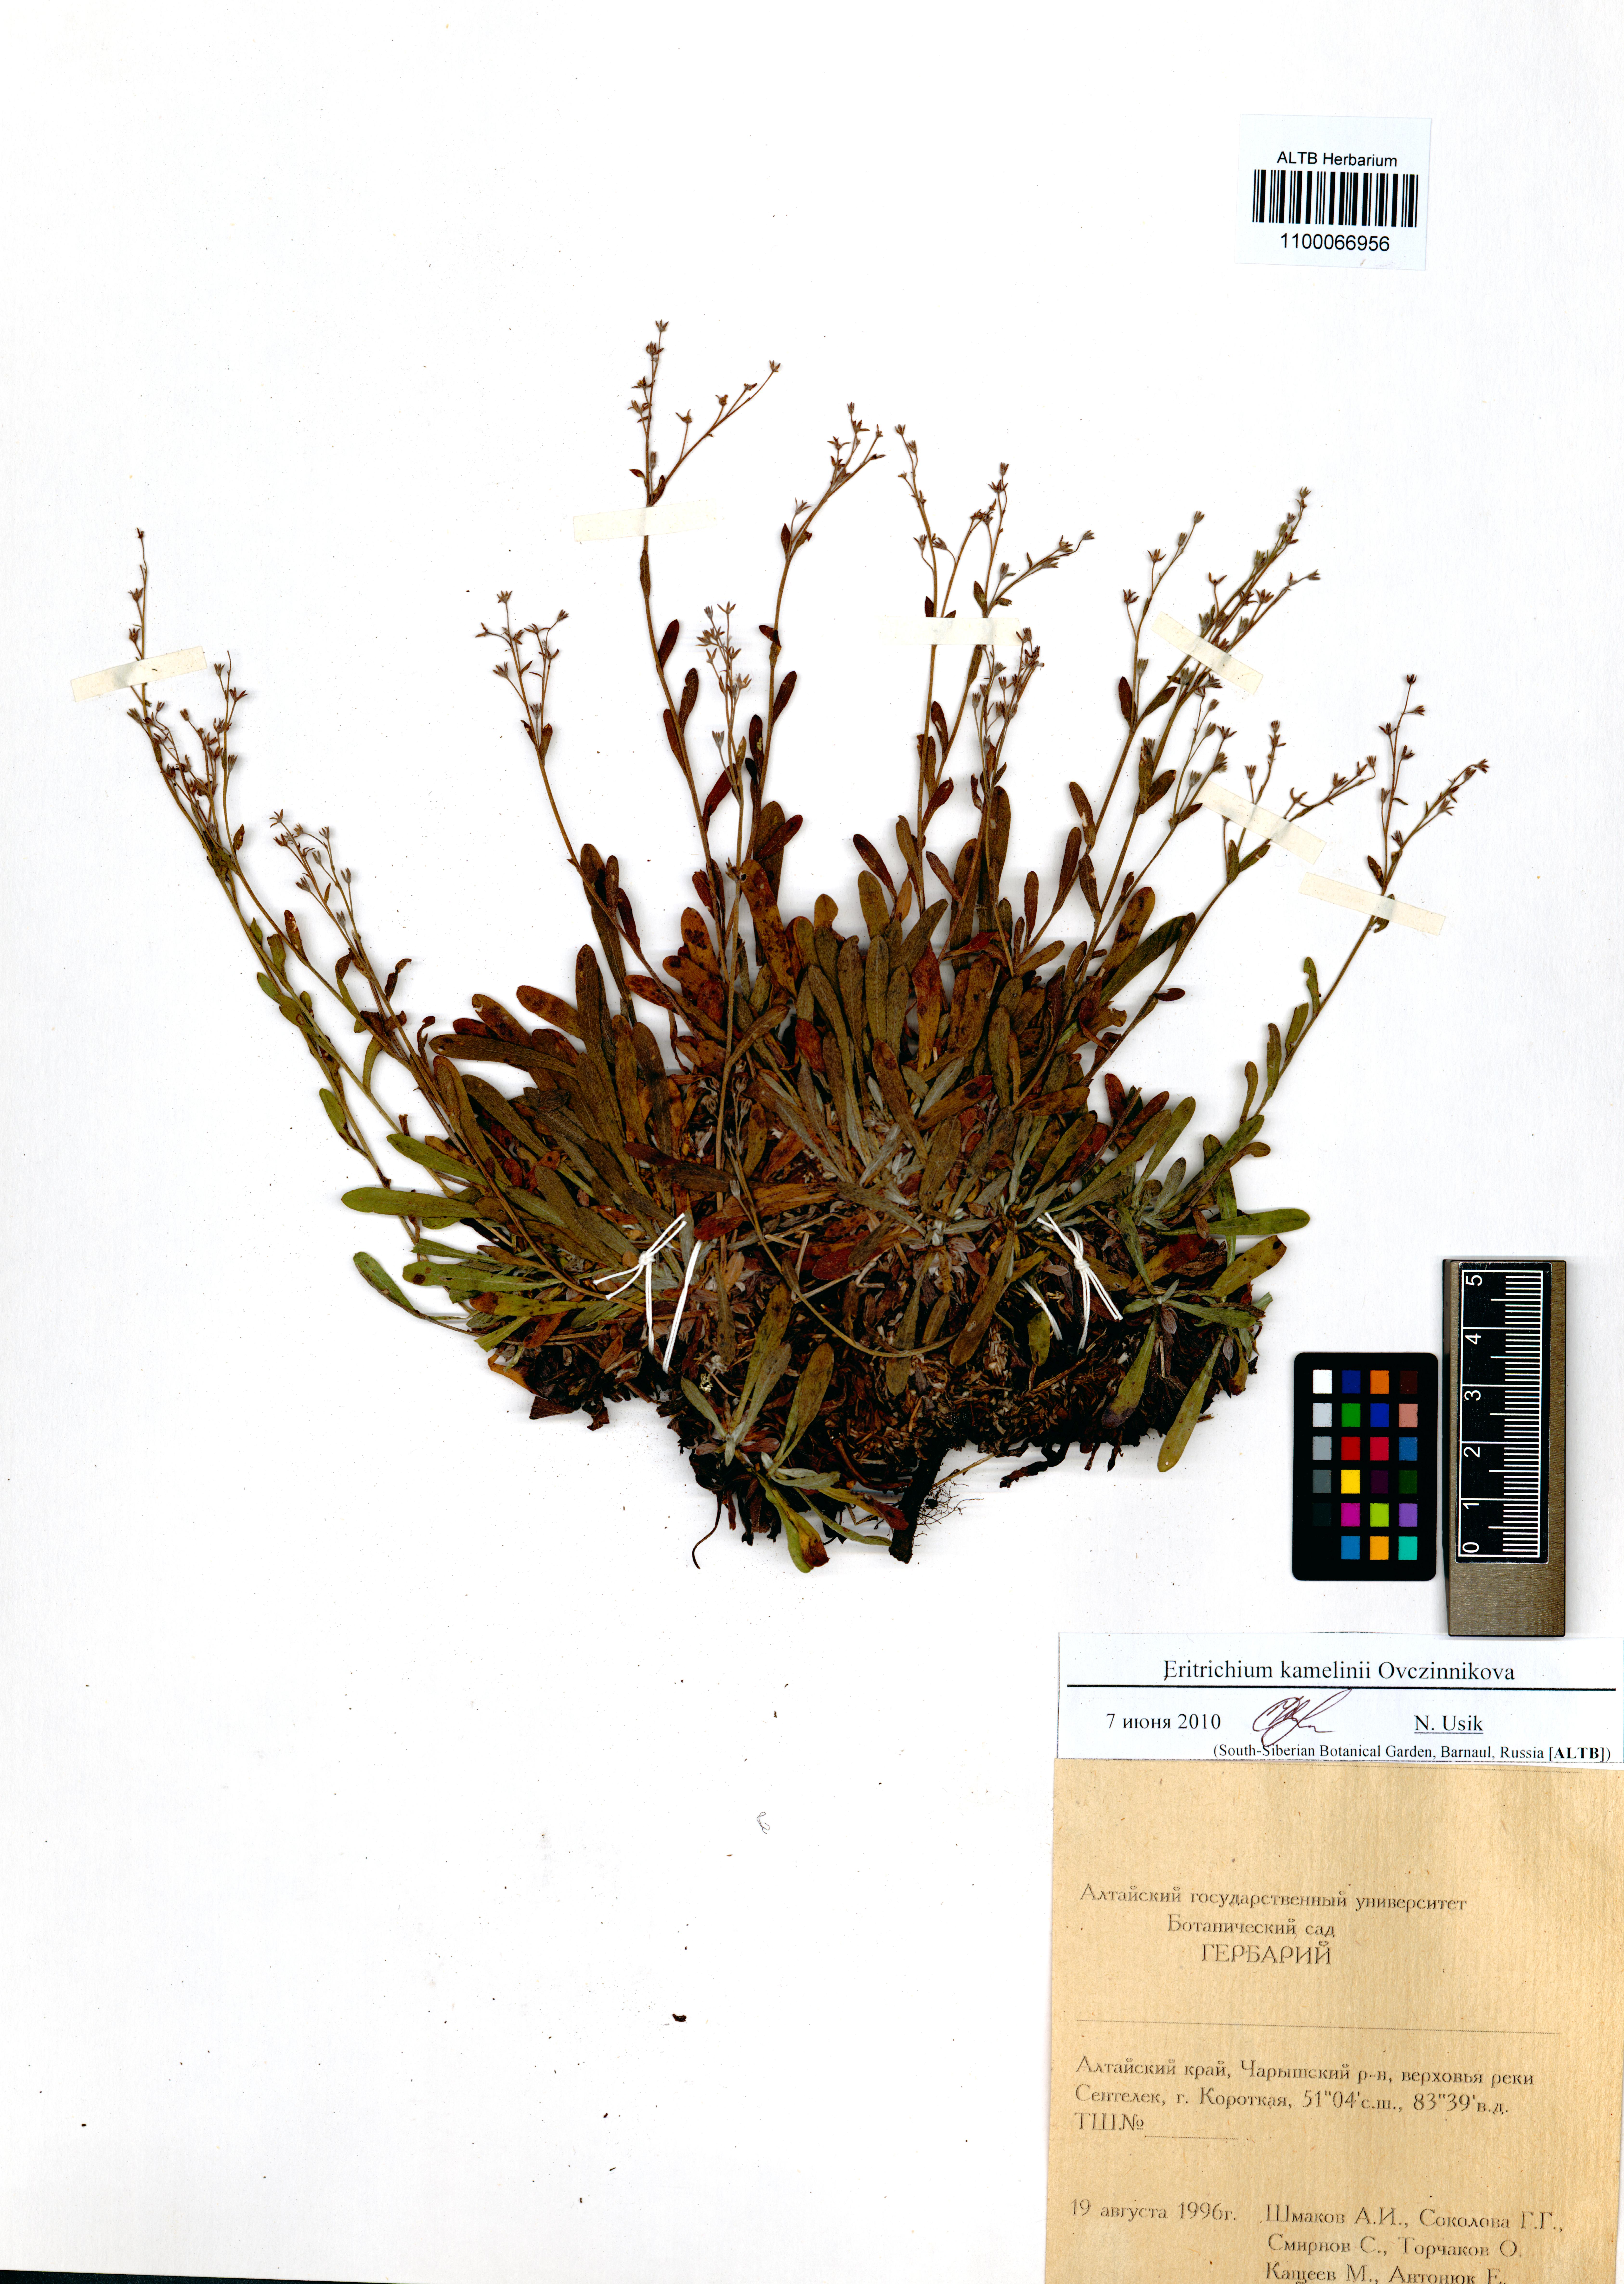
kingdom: Plantae
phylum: Tracheophyta
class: Magnoliopsida
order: Boraginales
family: Boraginaceae
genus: Eritrichium
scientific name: Eritrichium kamelinii
